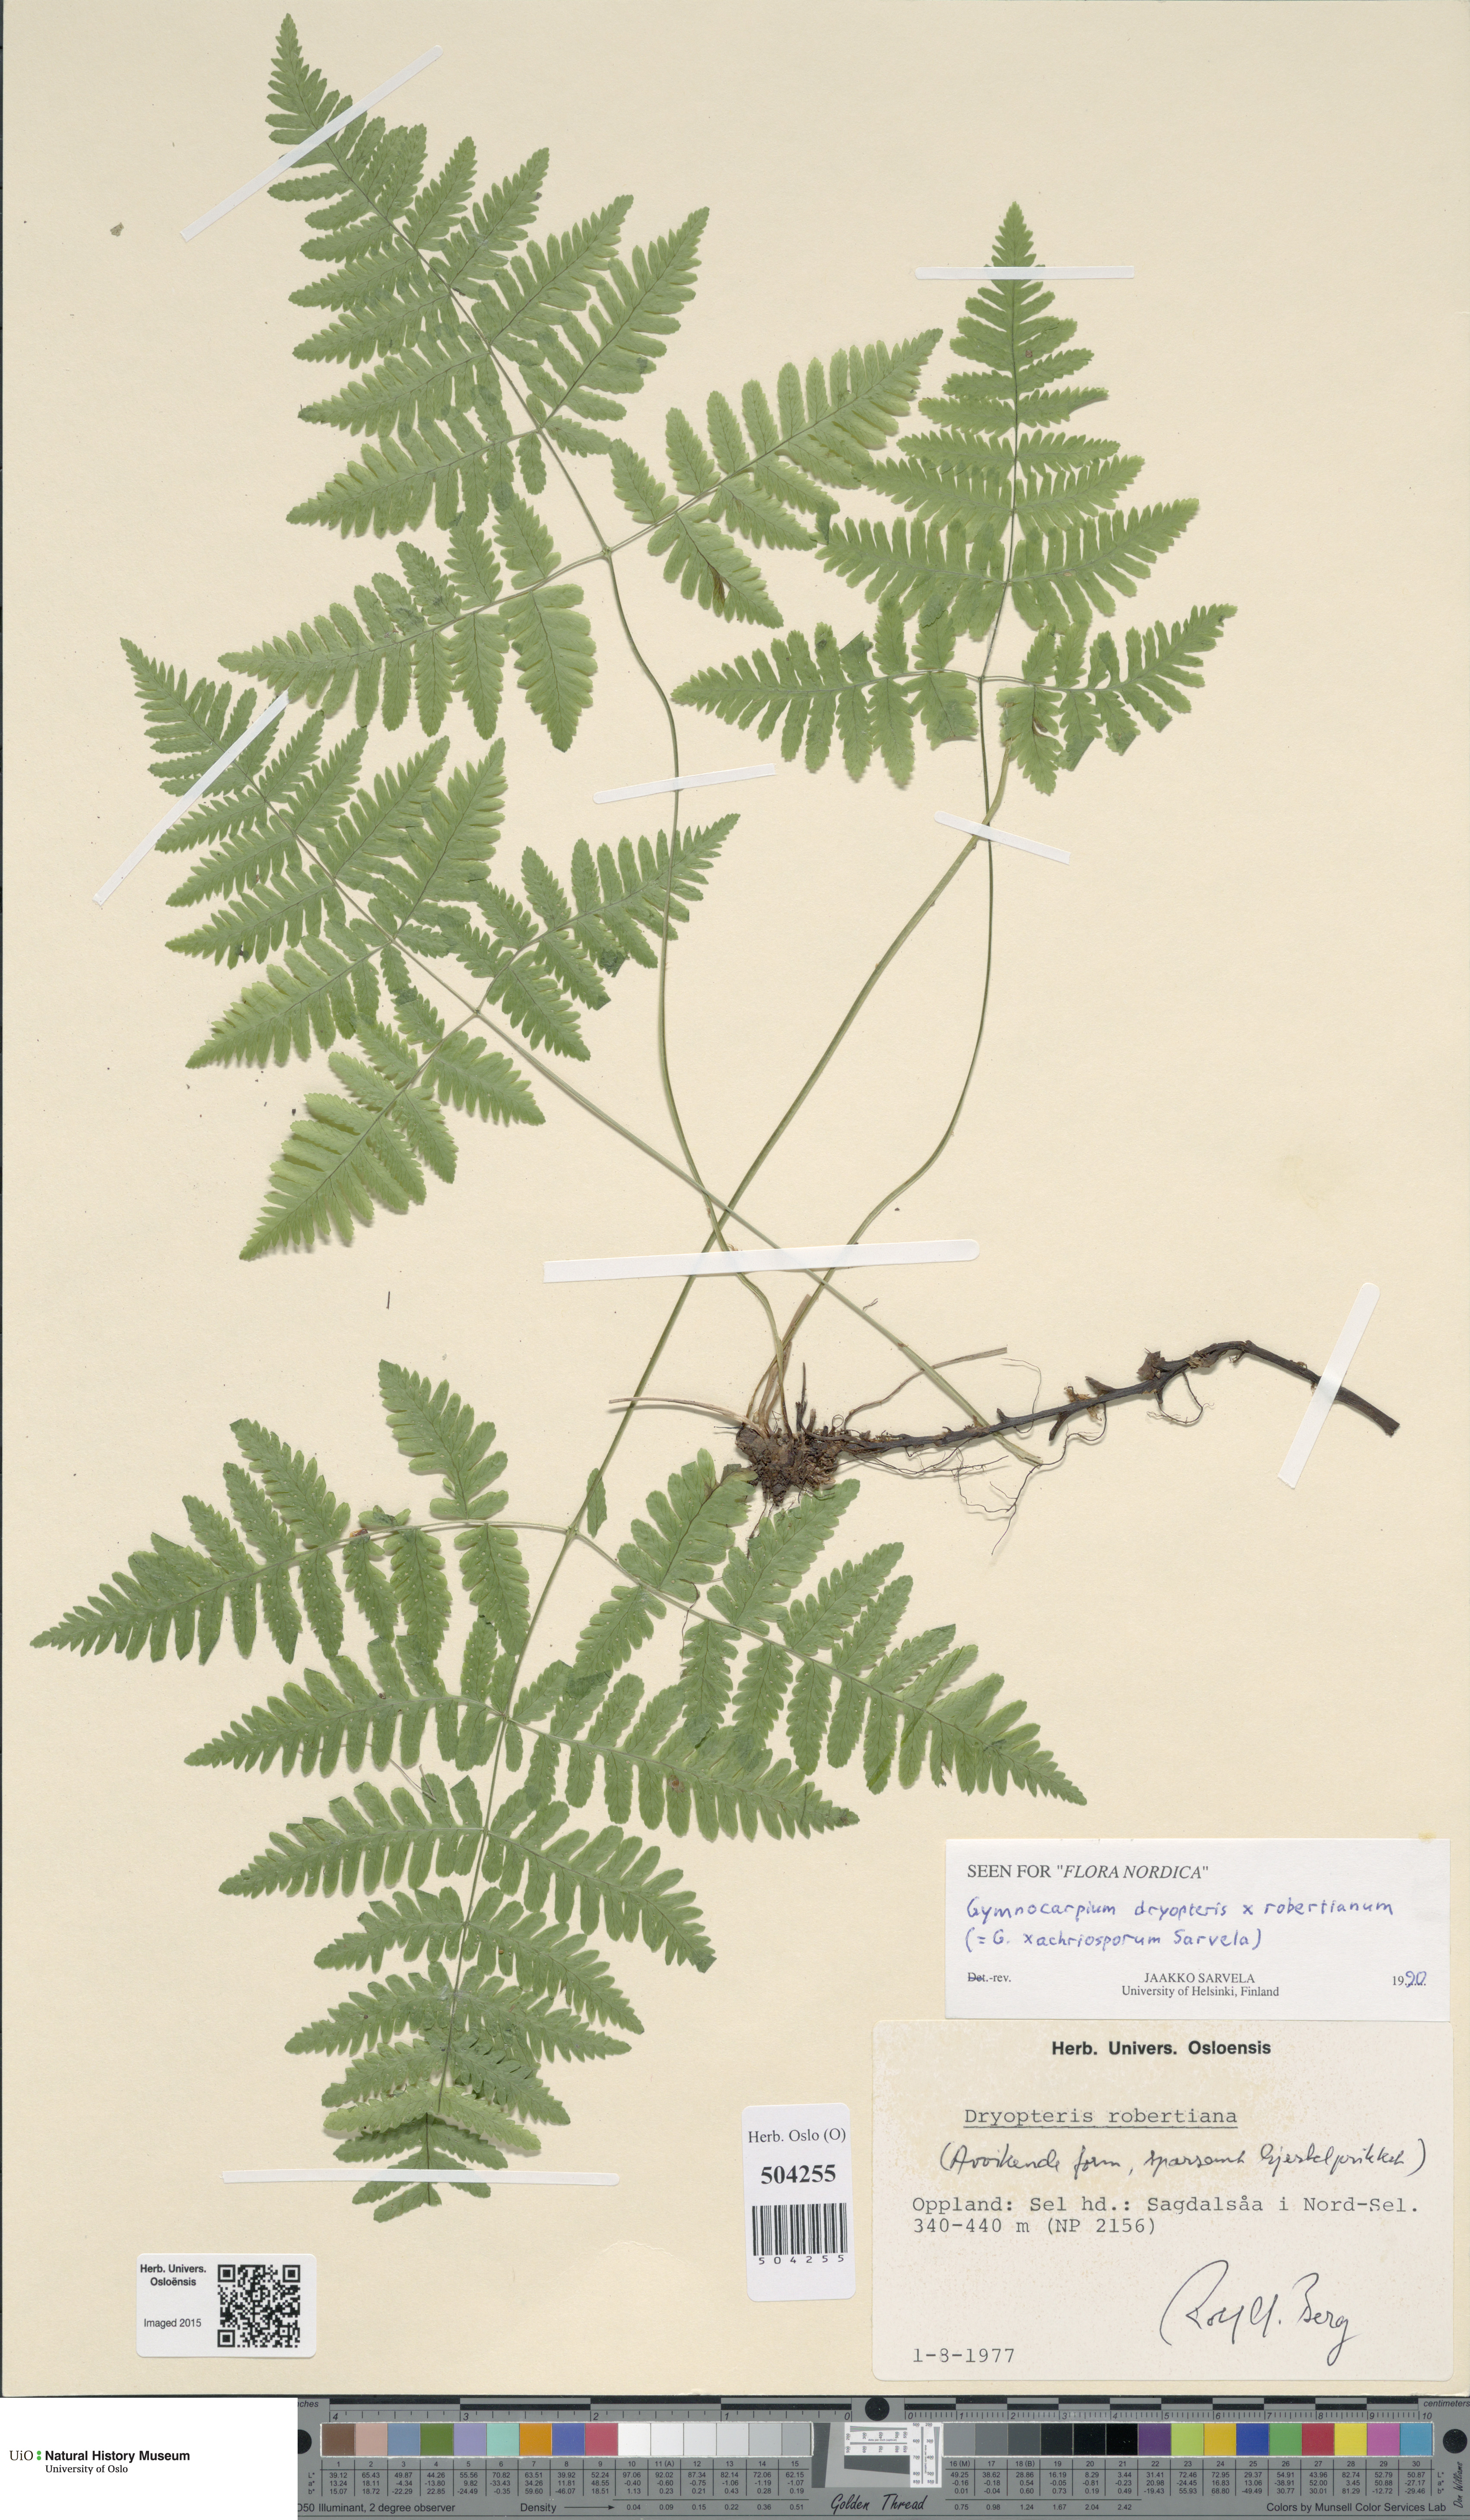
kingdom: Plantae
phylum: Tracheophyta
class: Polypodiopsida
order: Polypodiales
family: Cystopteridaceae
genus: Gymnocarpium
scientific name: Gymnocarpium
